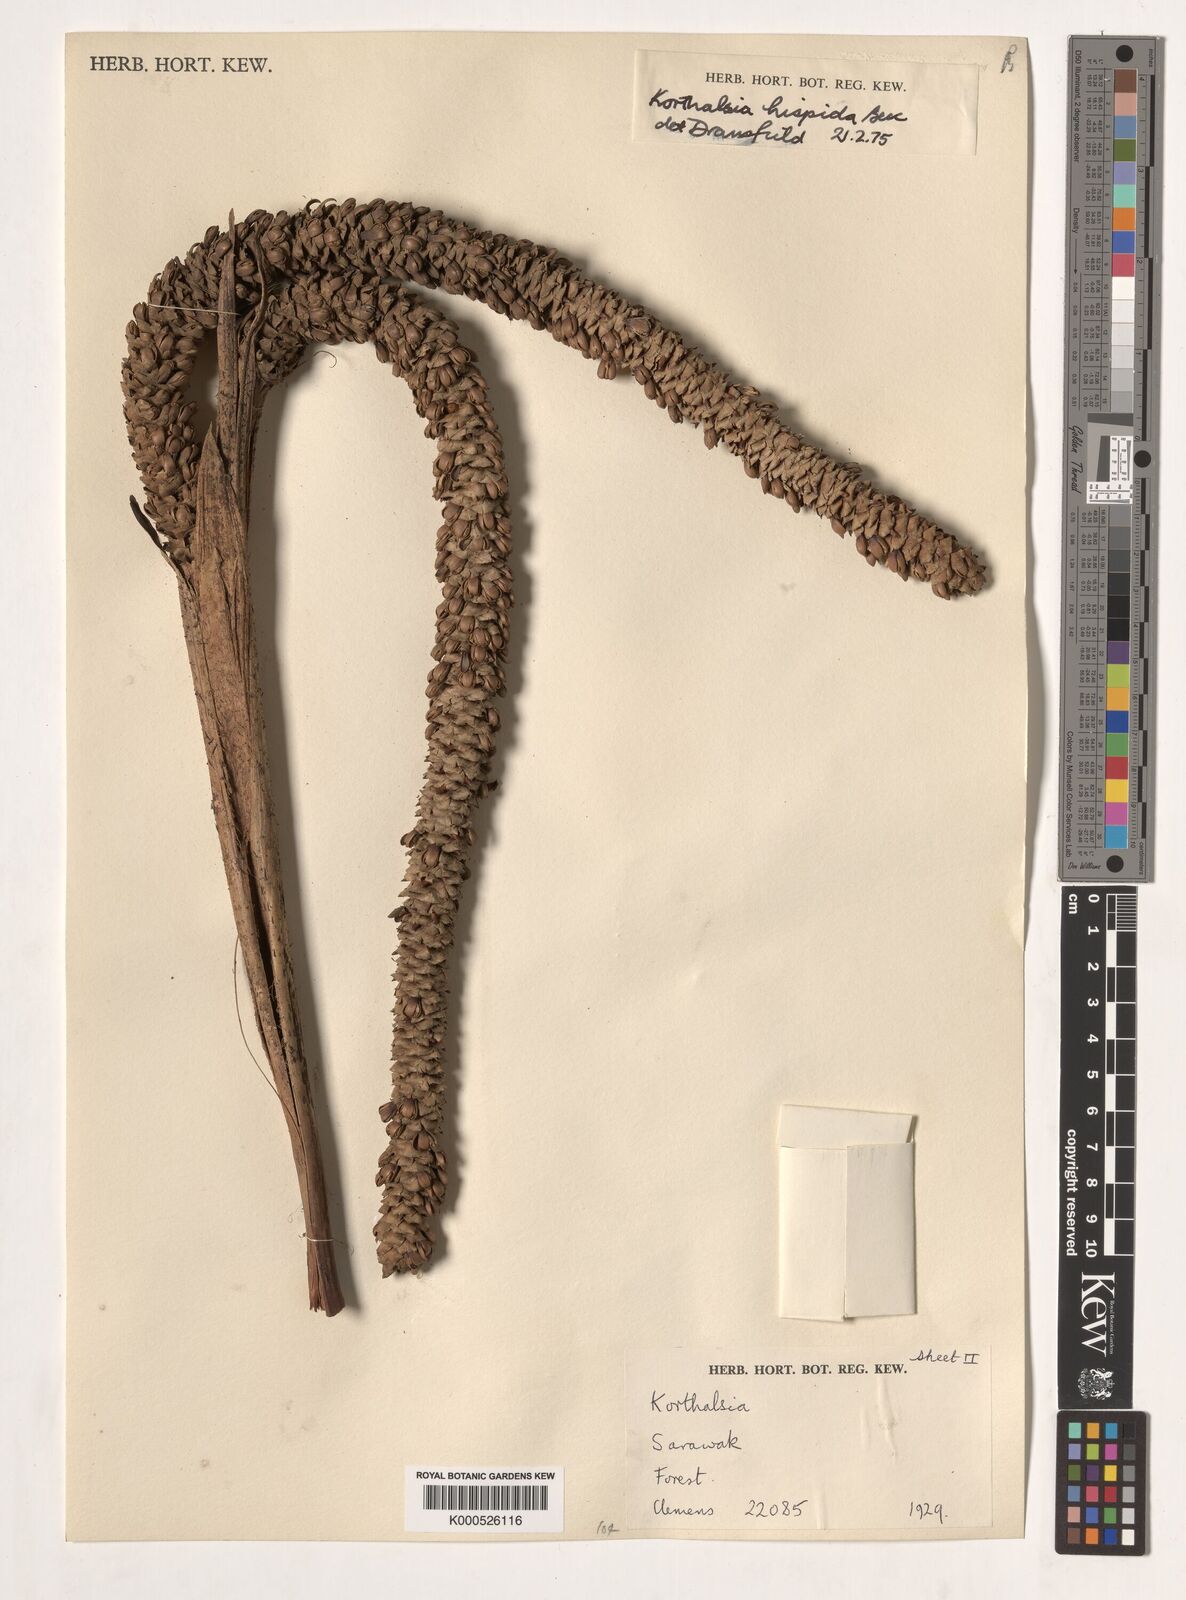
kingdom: Plantae
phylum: Tracheophyta
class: Liliopsida
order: Arecales
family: Arecaceae
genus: Korthalsia
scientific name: Korthalsia hispida
